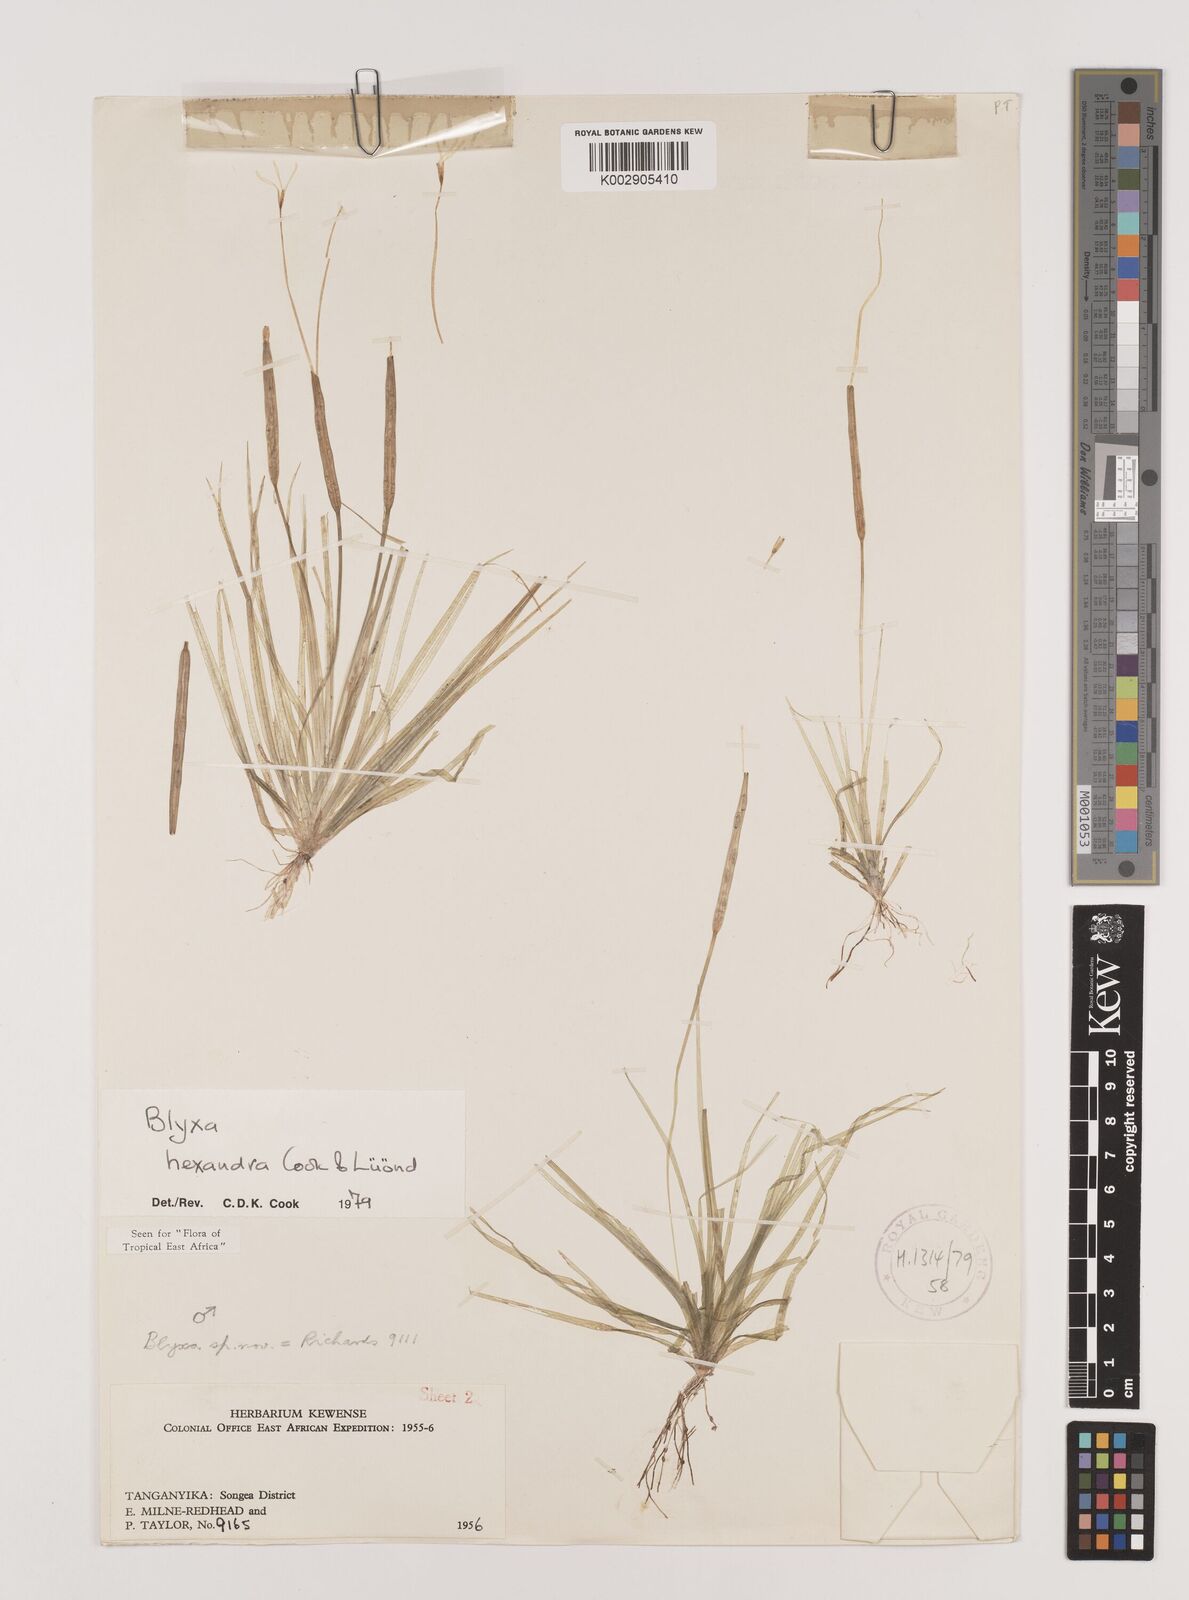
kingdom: Plantae
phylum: Tracheophyta
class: Liliopsida
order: Alismatales
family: Hydrocharitaceae
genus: Blyxa
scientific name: Blyxa hexandra
